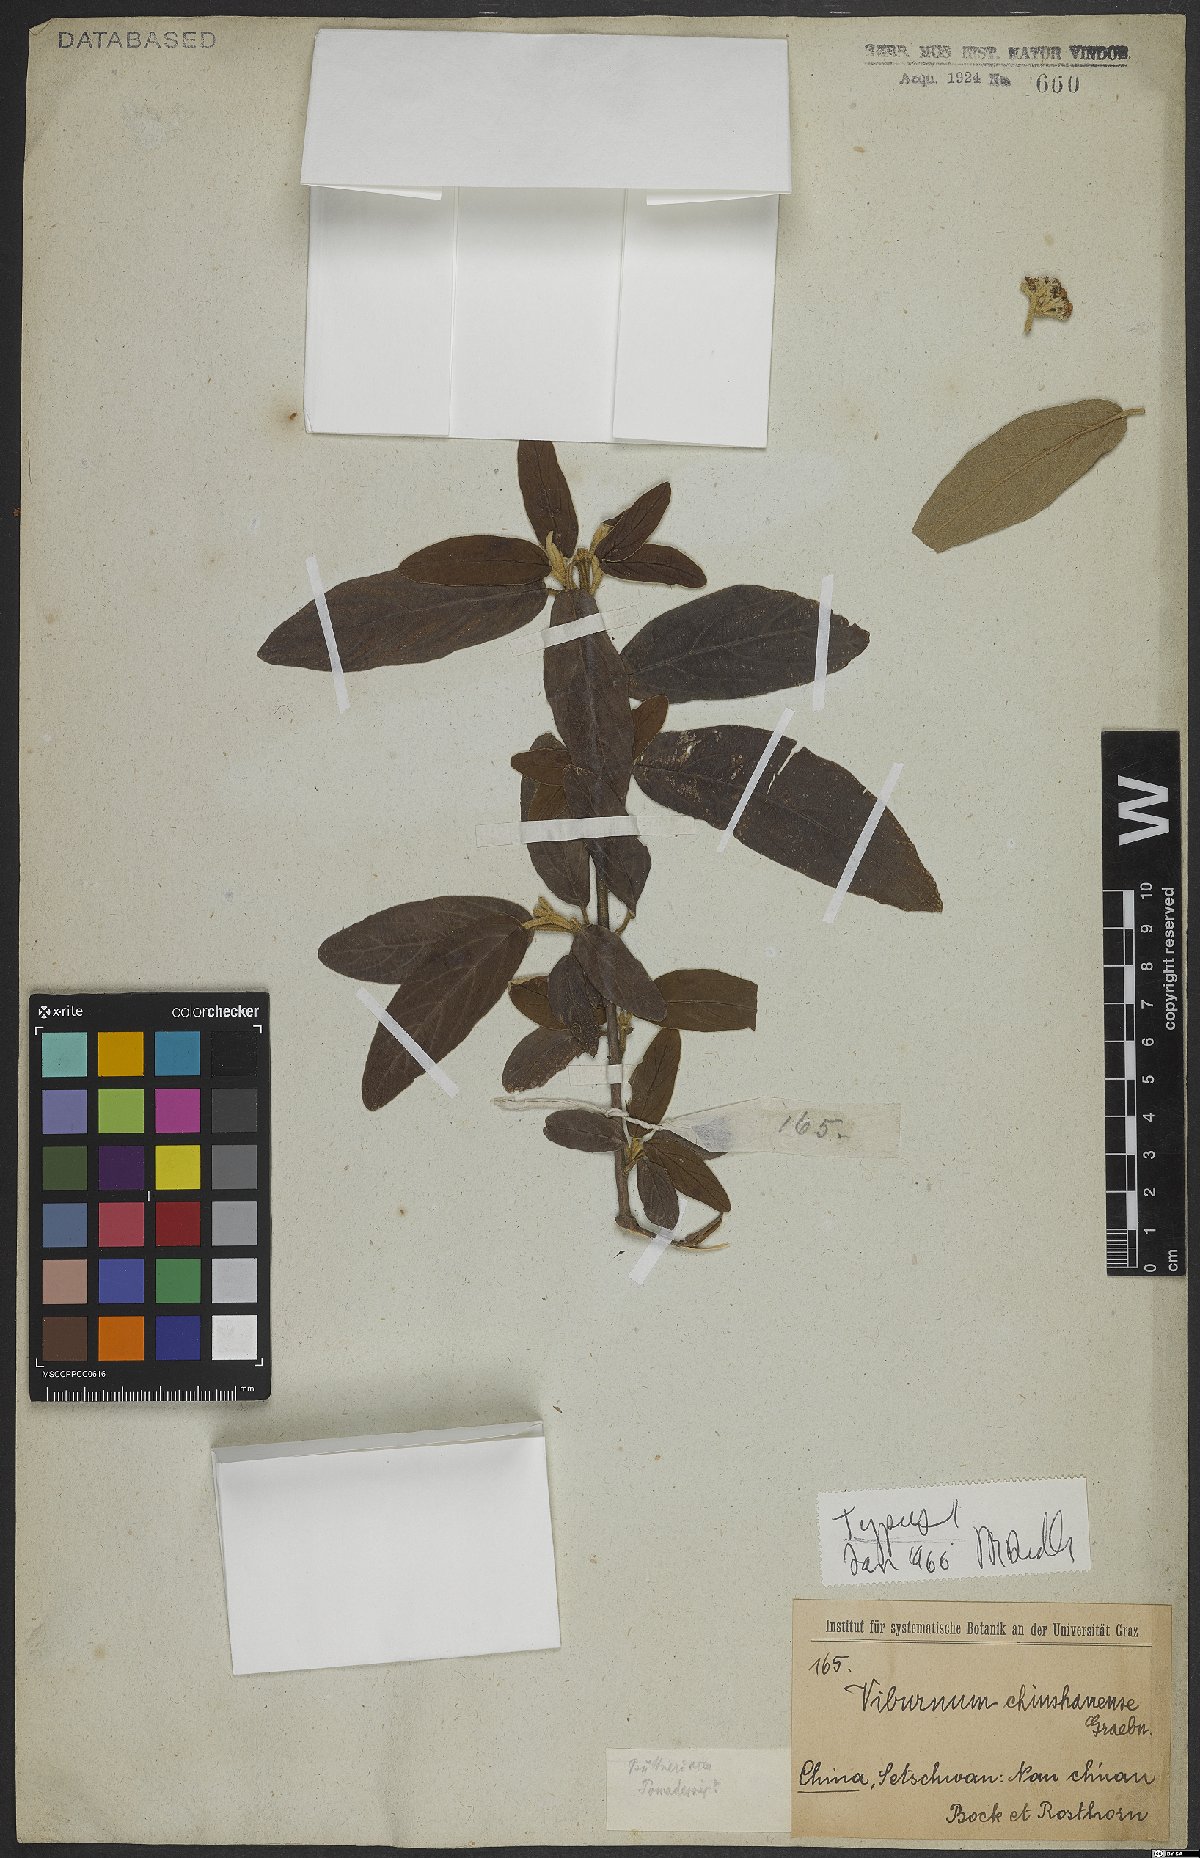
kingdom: Plantae
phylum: Tracheophyta
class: Magnoliopsida
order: Dipsacales
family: Viburnaceae
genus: Viburnum
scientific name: Viburnum chinshanense
